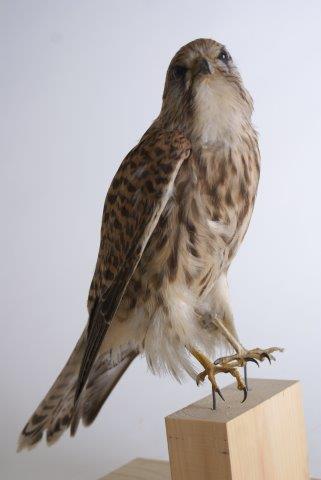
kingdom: Animalia
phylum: Chordata
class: Aves
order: Falconiformes
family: Falconidae
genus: Falco
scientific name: Falco tinnunculus
